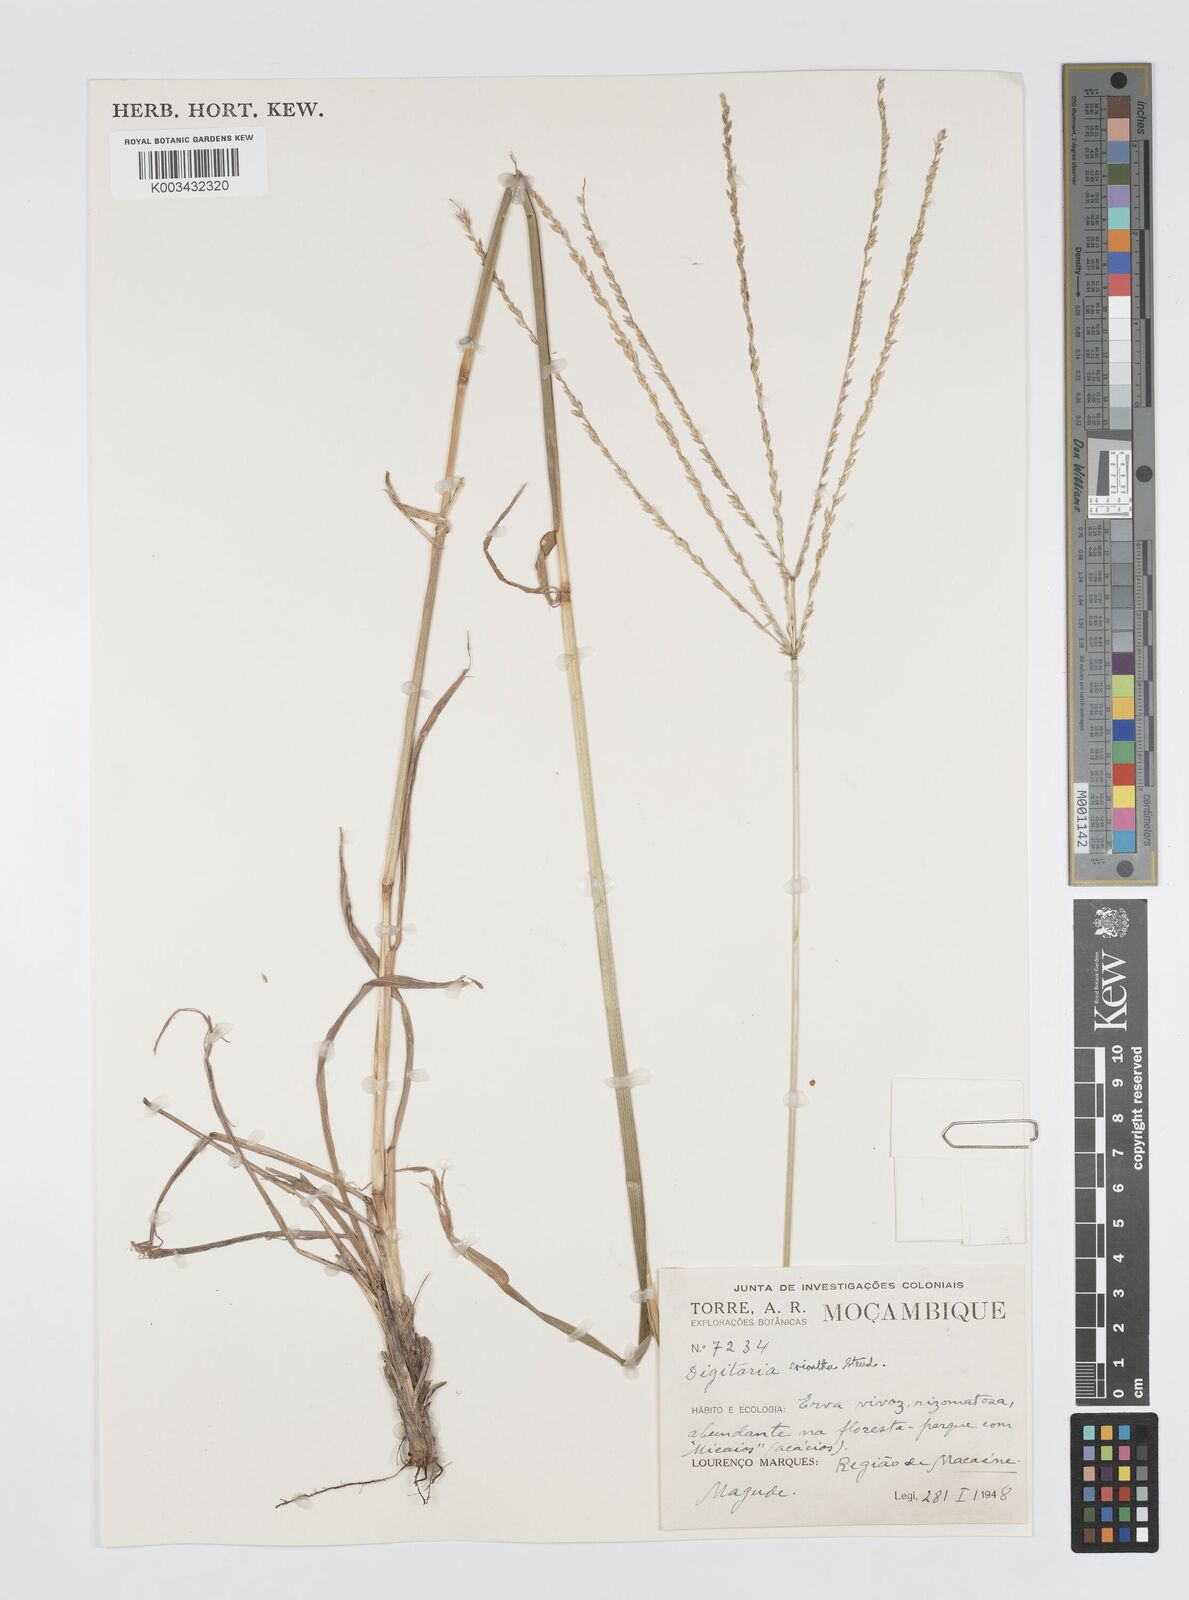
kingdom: Plantae
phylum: Tracheophyta
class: Liliopsida
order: Poales
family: Poaceae
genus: Digitaria
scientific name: Digitaria eriantha
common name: Digitgrass
